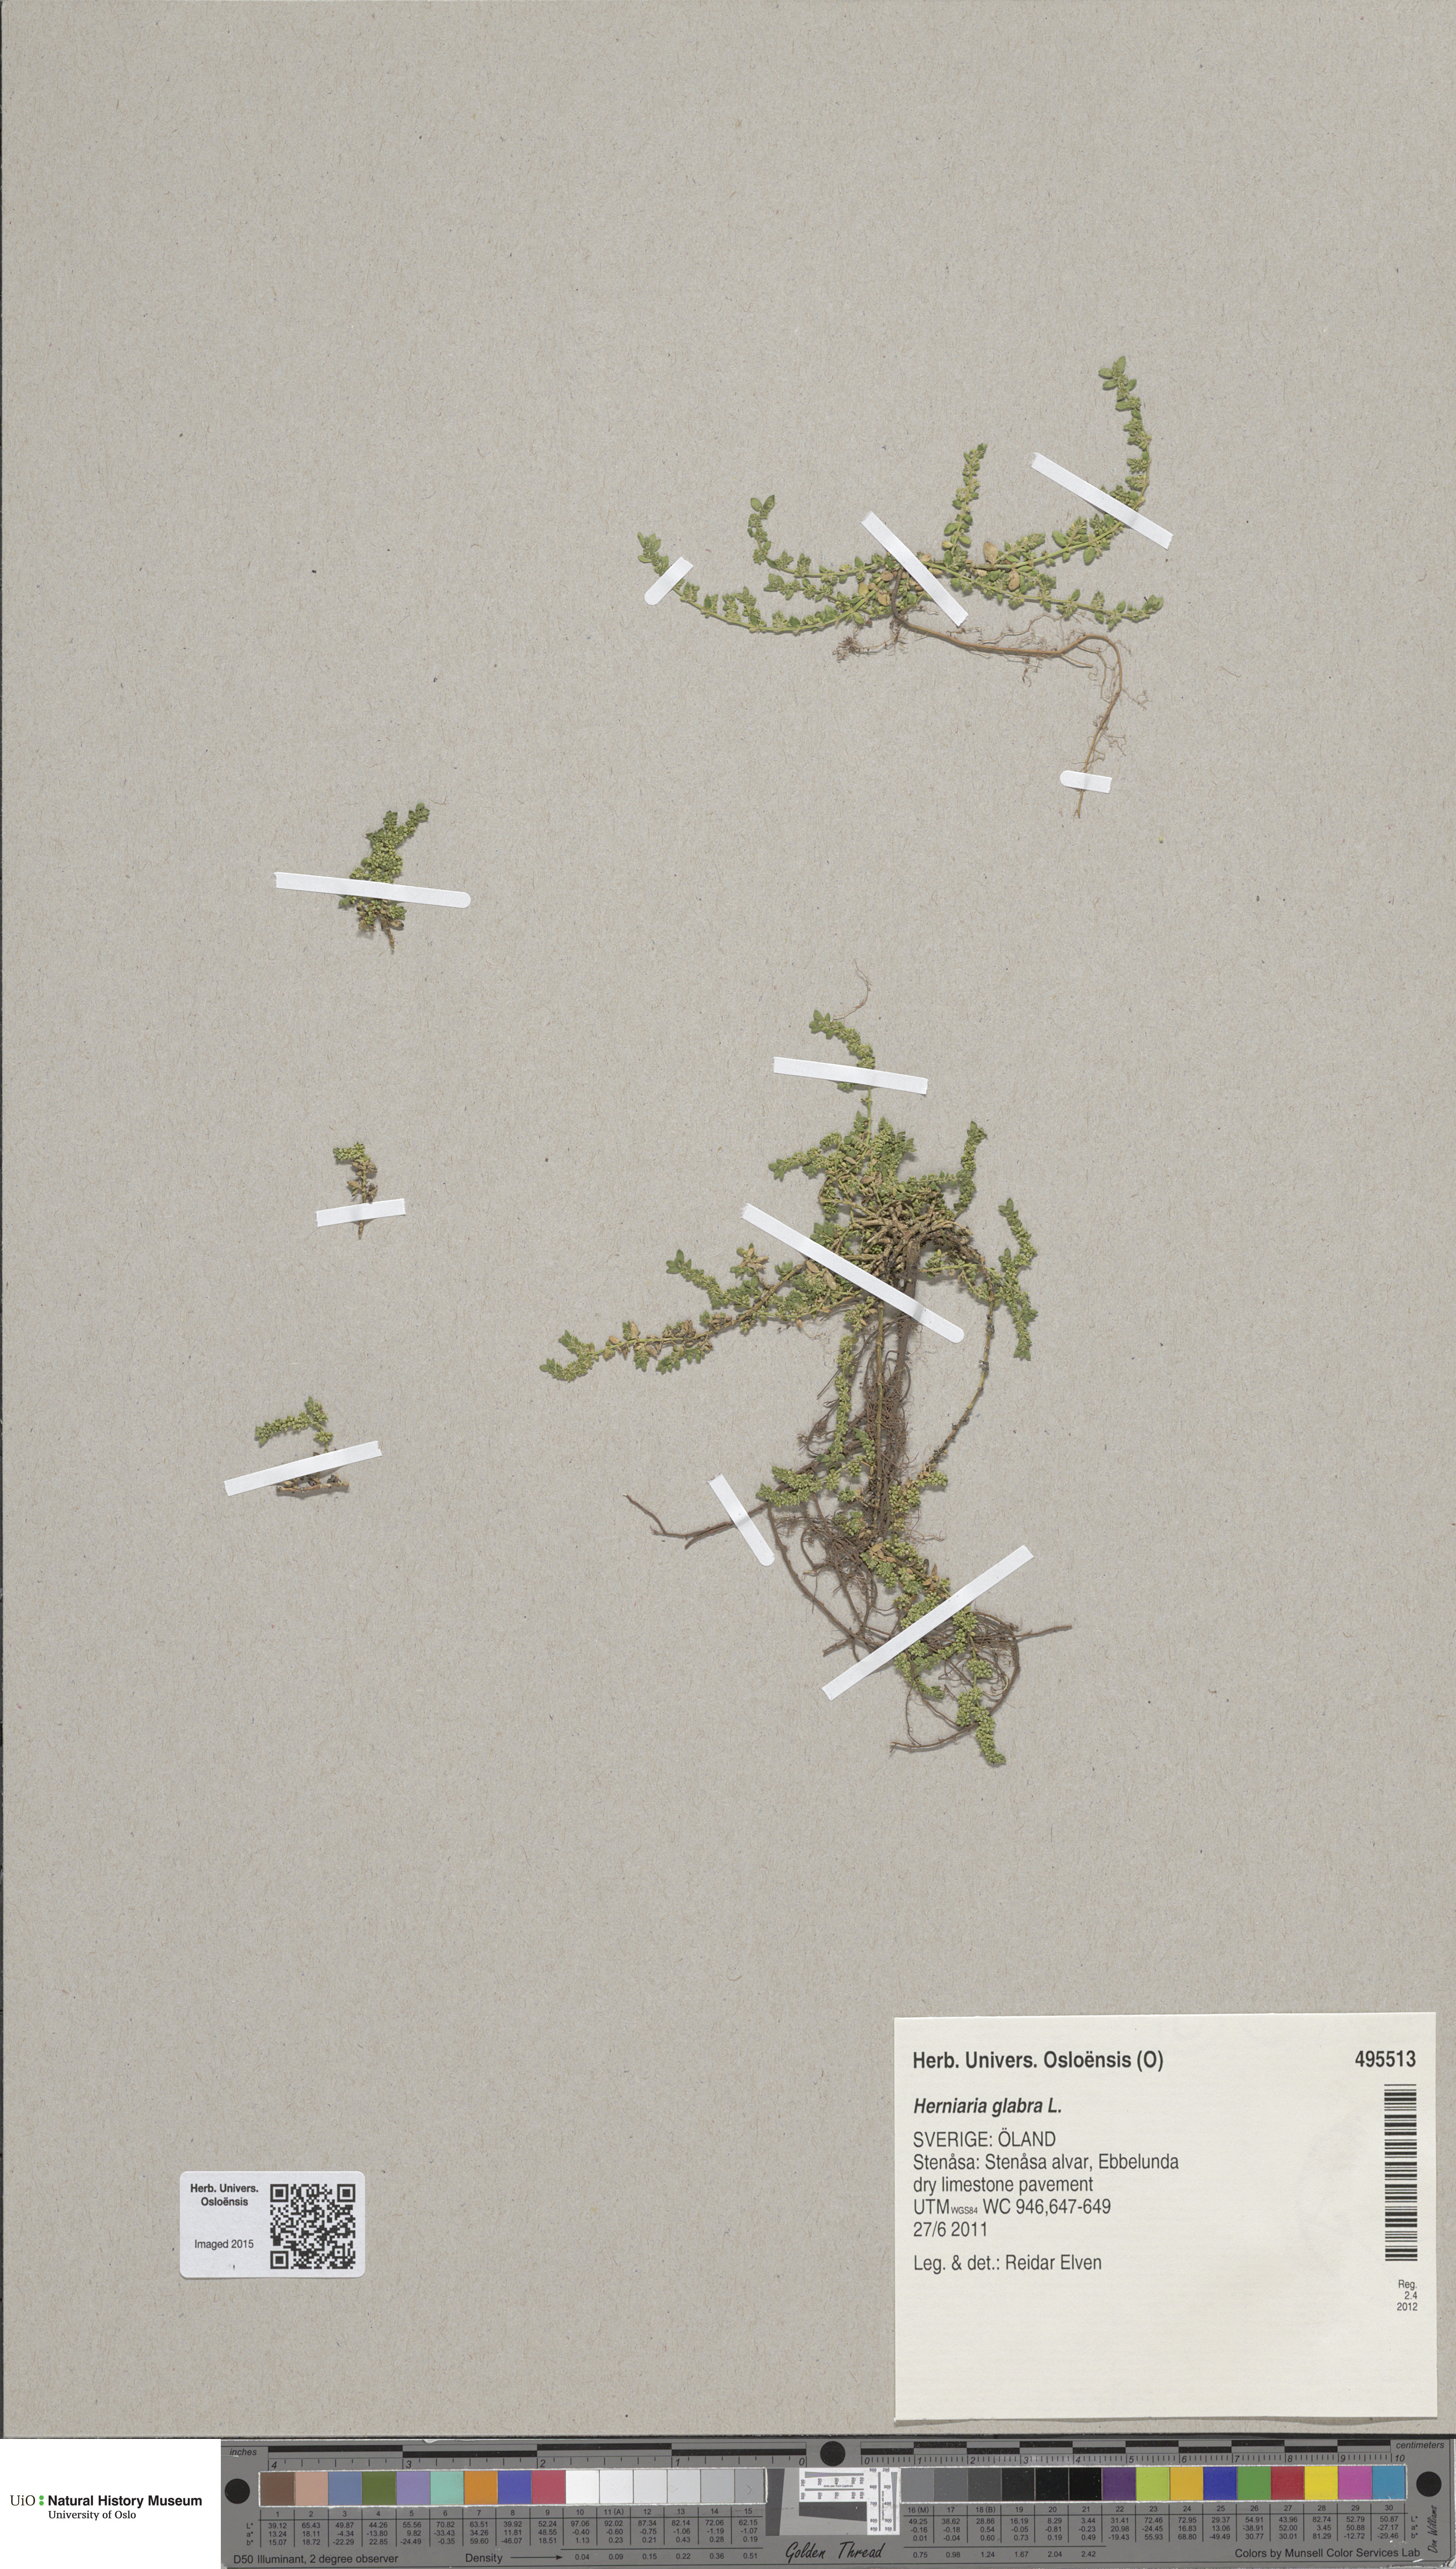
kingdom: Plantae
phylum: Tracheophyta
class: Magnoliopsida
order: Caryophyllales
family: Caryophyllaceae
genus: Herniaria
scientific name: Herniaria glabra
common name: Smooth rupturewort
